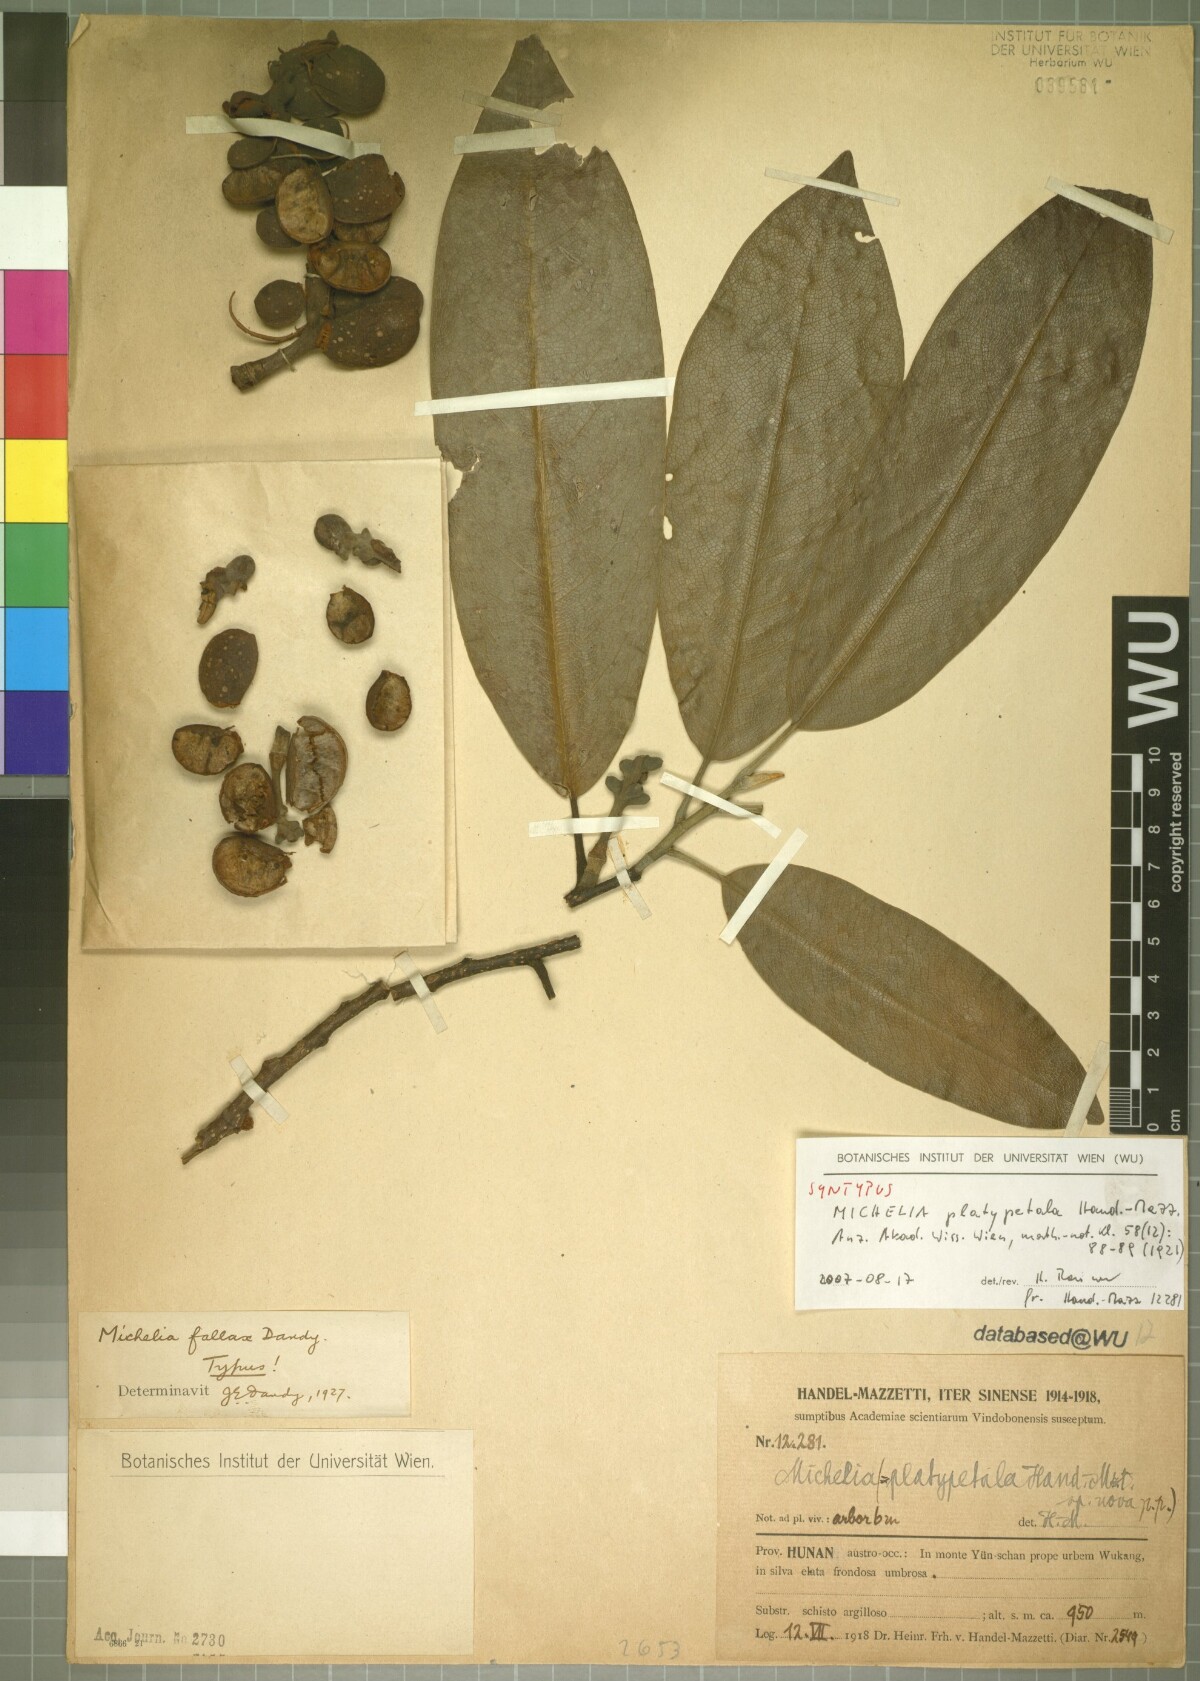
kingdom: Plantae
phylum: Tracheophyta
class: Magnoliopsida
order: Magnoliales
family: Magnoliaceae
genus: Magnolia
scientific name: Magnolia maudiae
